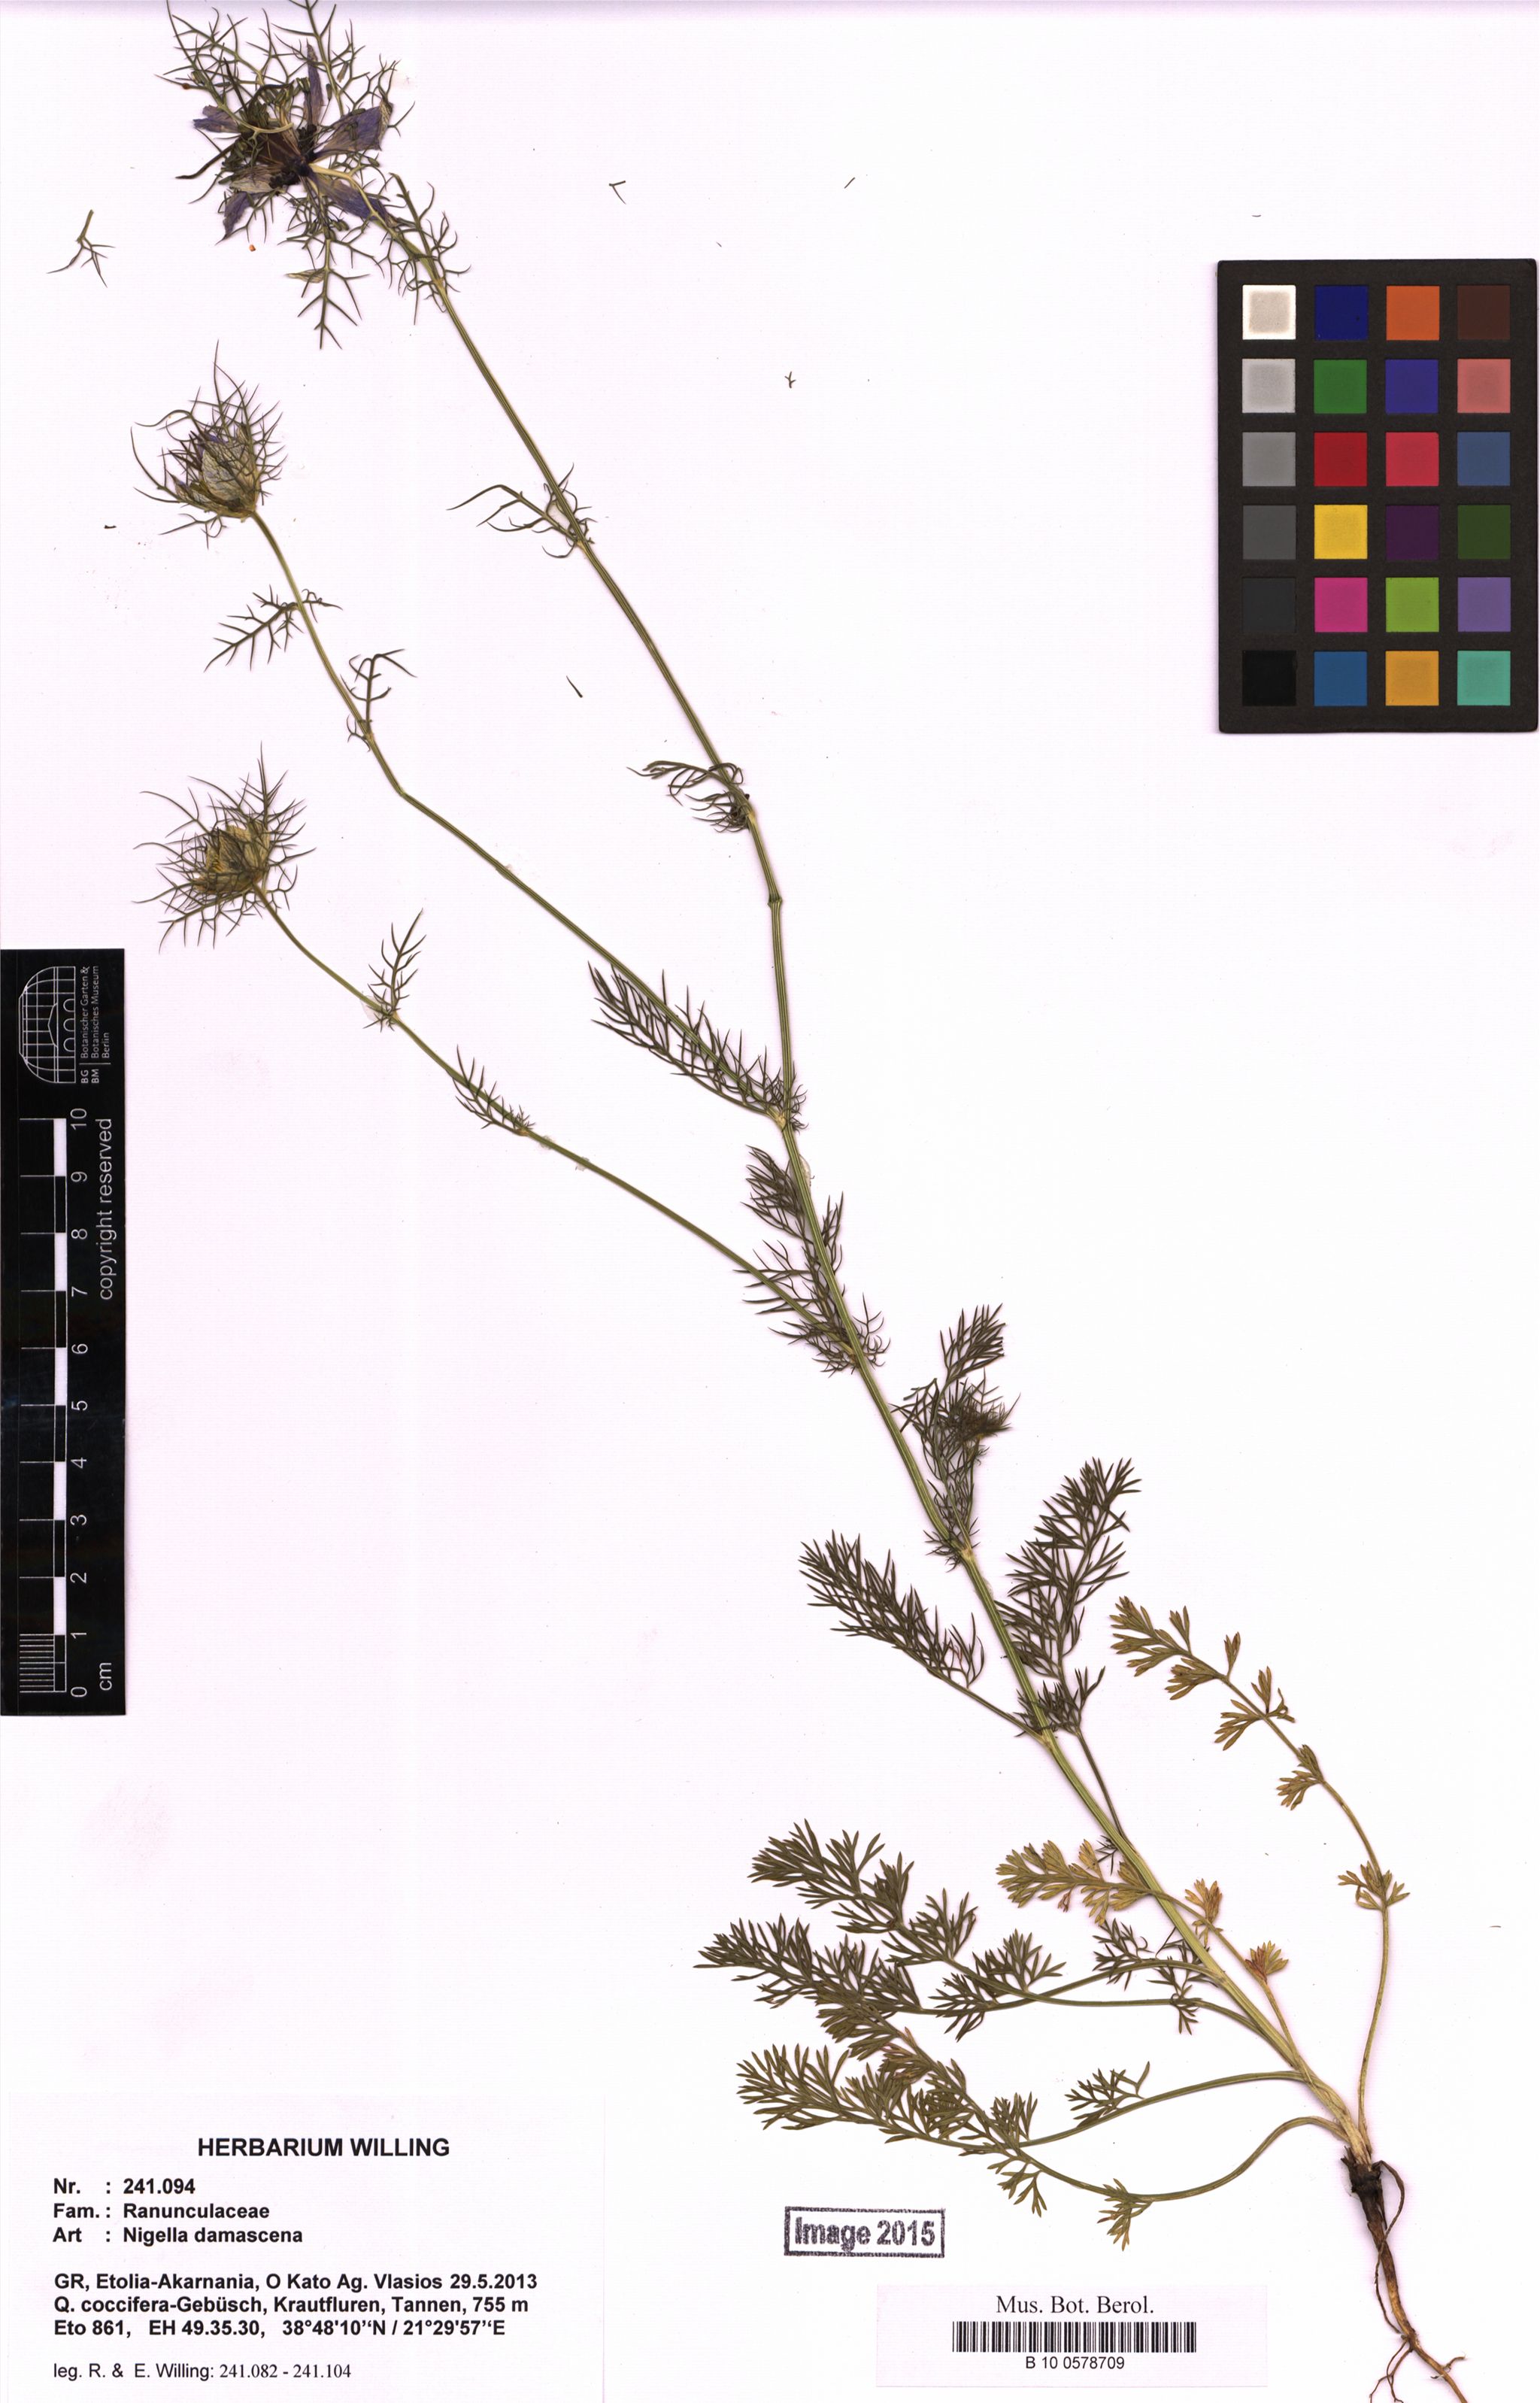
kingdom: Plantae
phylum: Tracheophyta
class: Magnoliopsida
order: Ranunculales
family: Ranunculaceae
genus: Nigella
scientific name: Nigella damascena
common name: Love-in-a-mist
